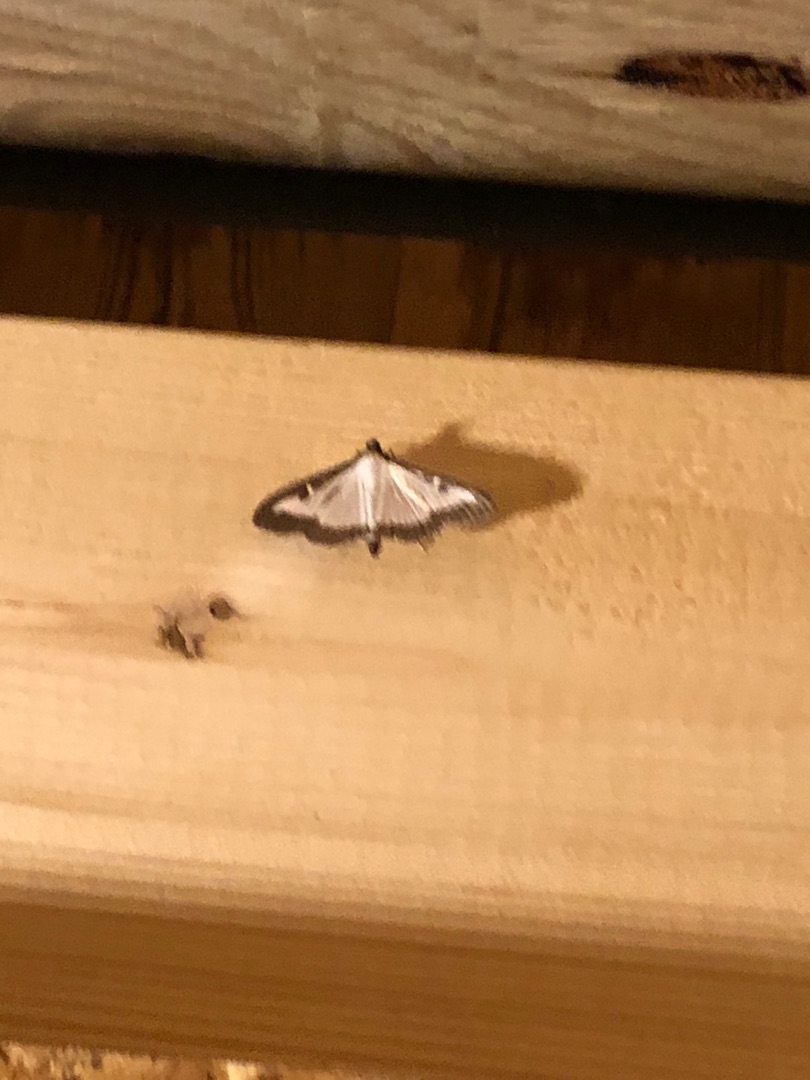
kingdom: Animalia
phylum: Arthropoda
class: Insecta
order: Lepidoptera
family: Crambidae
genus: Cydalima
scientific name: Cydalima perspectalis
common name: Buksbomhalvmøl
